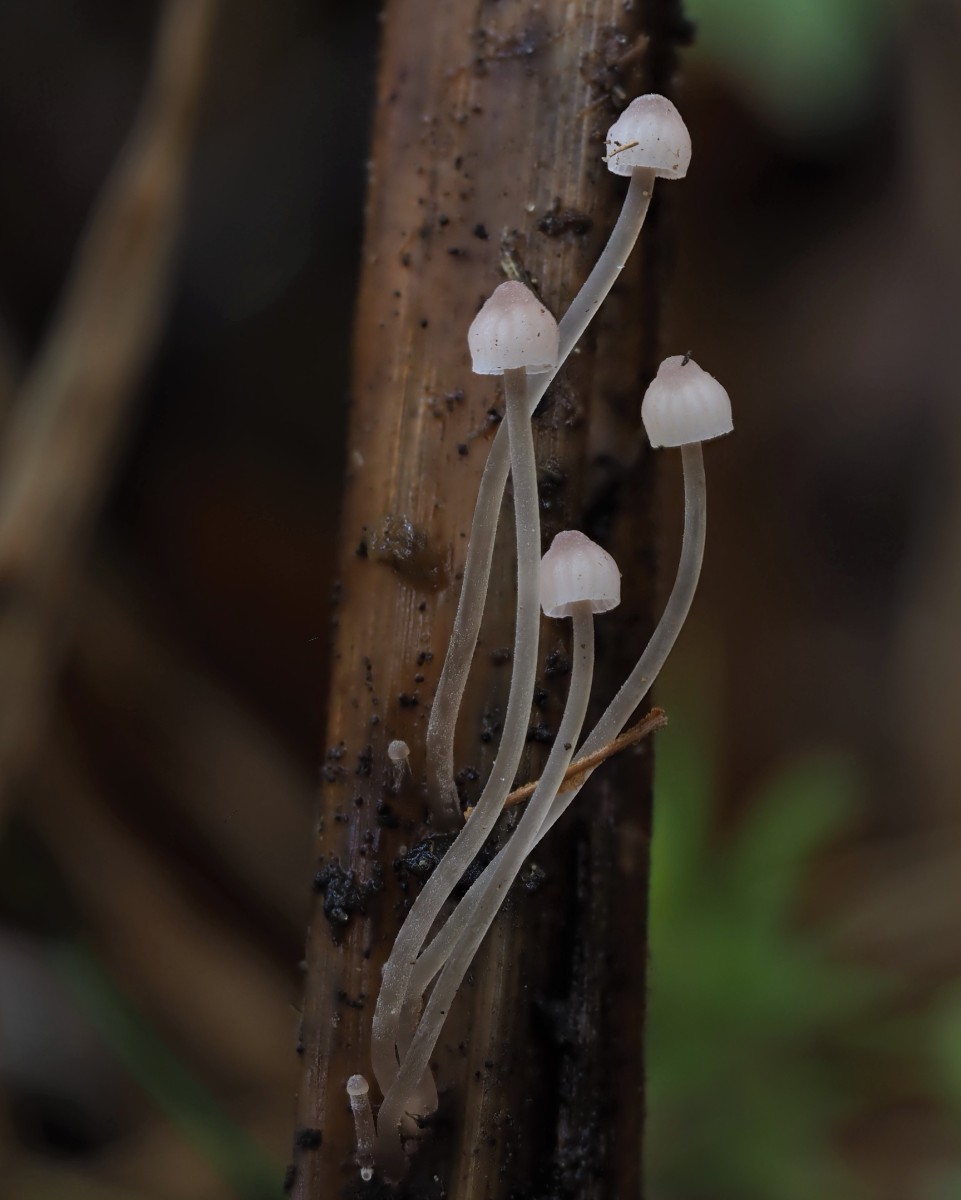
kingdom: Fungi
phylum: Basidiomycota
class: Agaricomycetes
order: Agaricales
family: Mycenaceae
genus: Mycena
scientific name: Mycena riparia
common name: star-huesvamp
